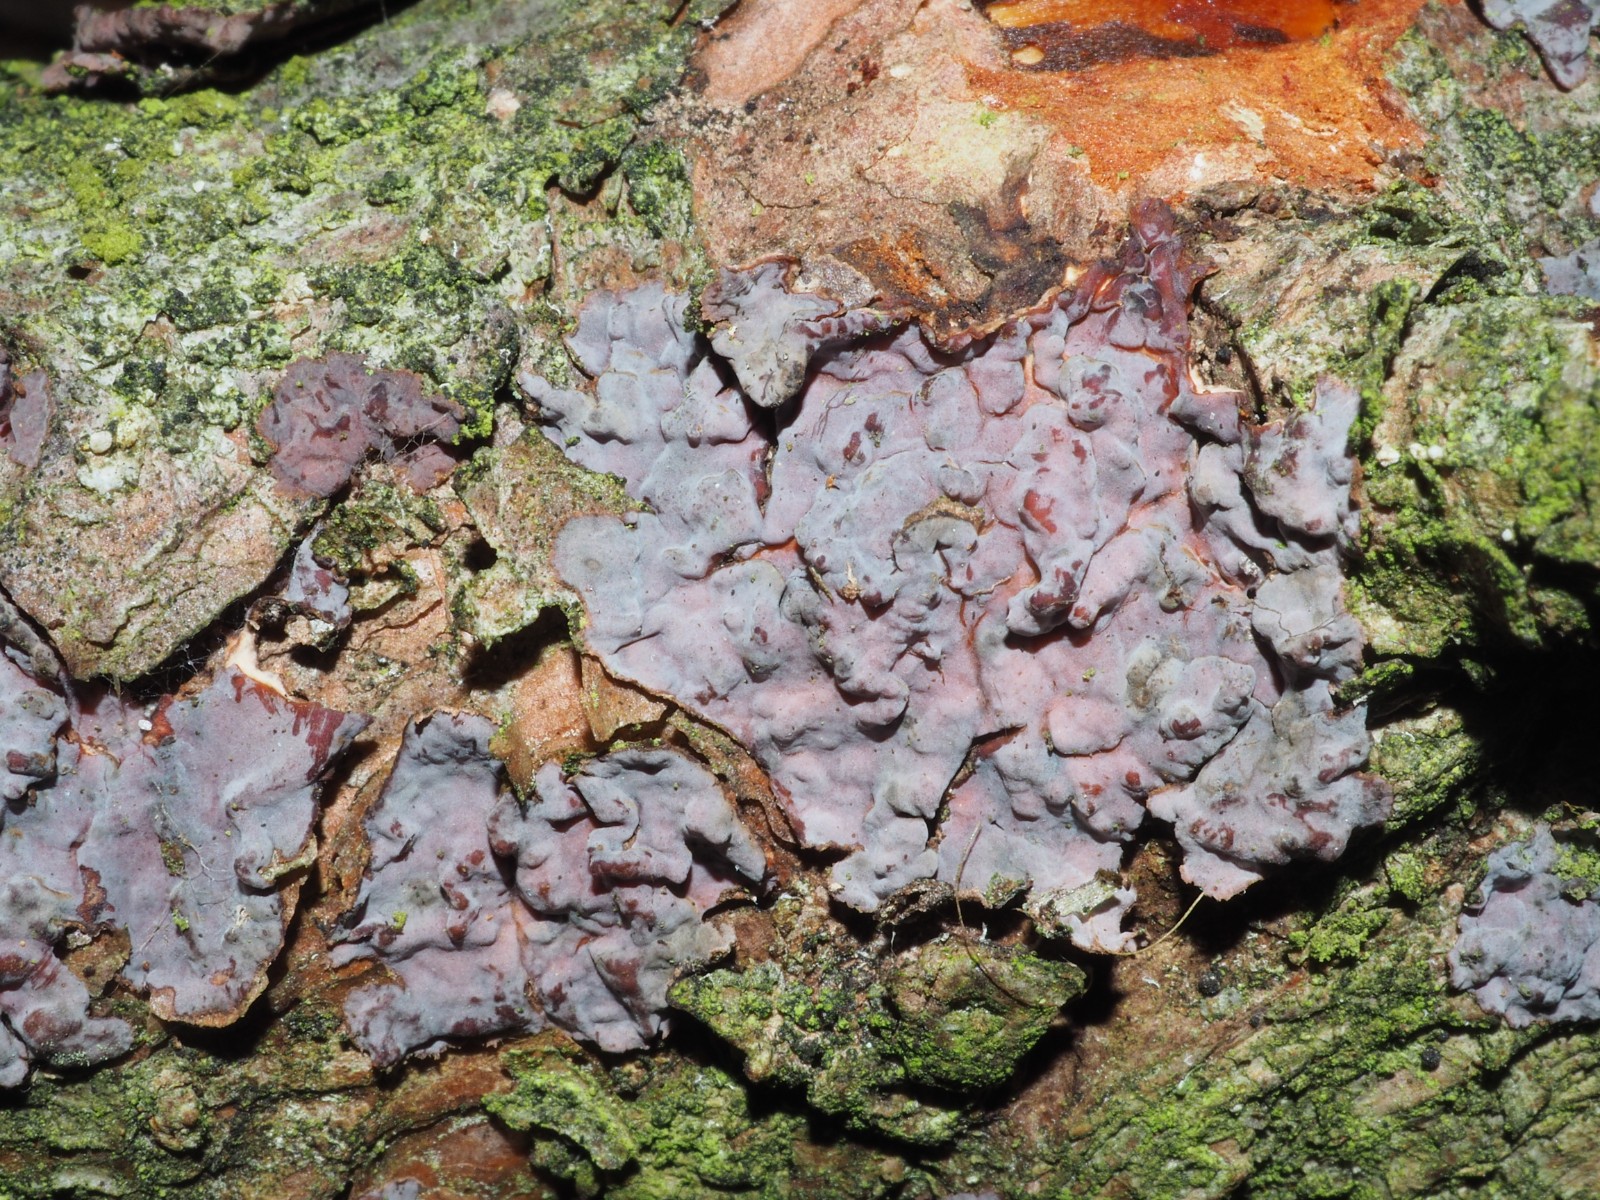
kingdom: Fungi
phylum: Basidiomycota
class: Agaricomycetes
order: Russulales
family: Peniophoraceae
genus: Peniophora
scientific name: Peniophora pini
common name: fyrre-voksskind
